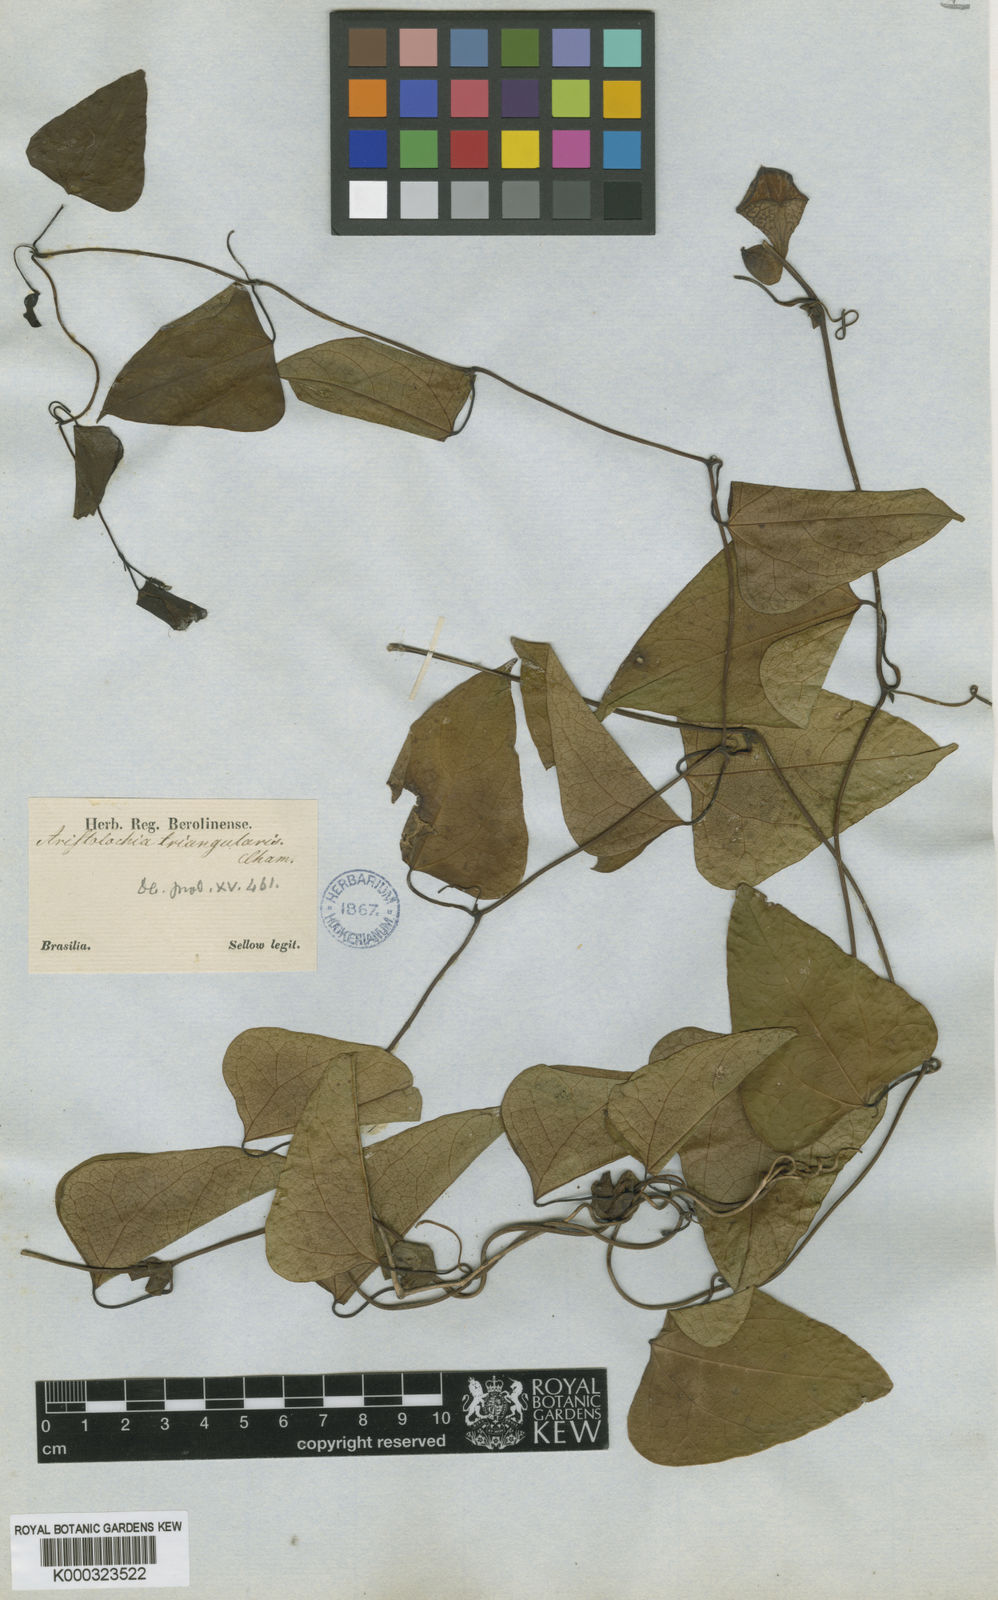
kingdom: Plantae
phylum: Tracheophyta
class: Magnoliopsida
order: Piperales
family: Aristolochiaceae
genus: Aristolochia
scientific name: Aristolochia triangularis
